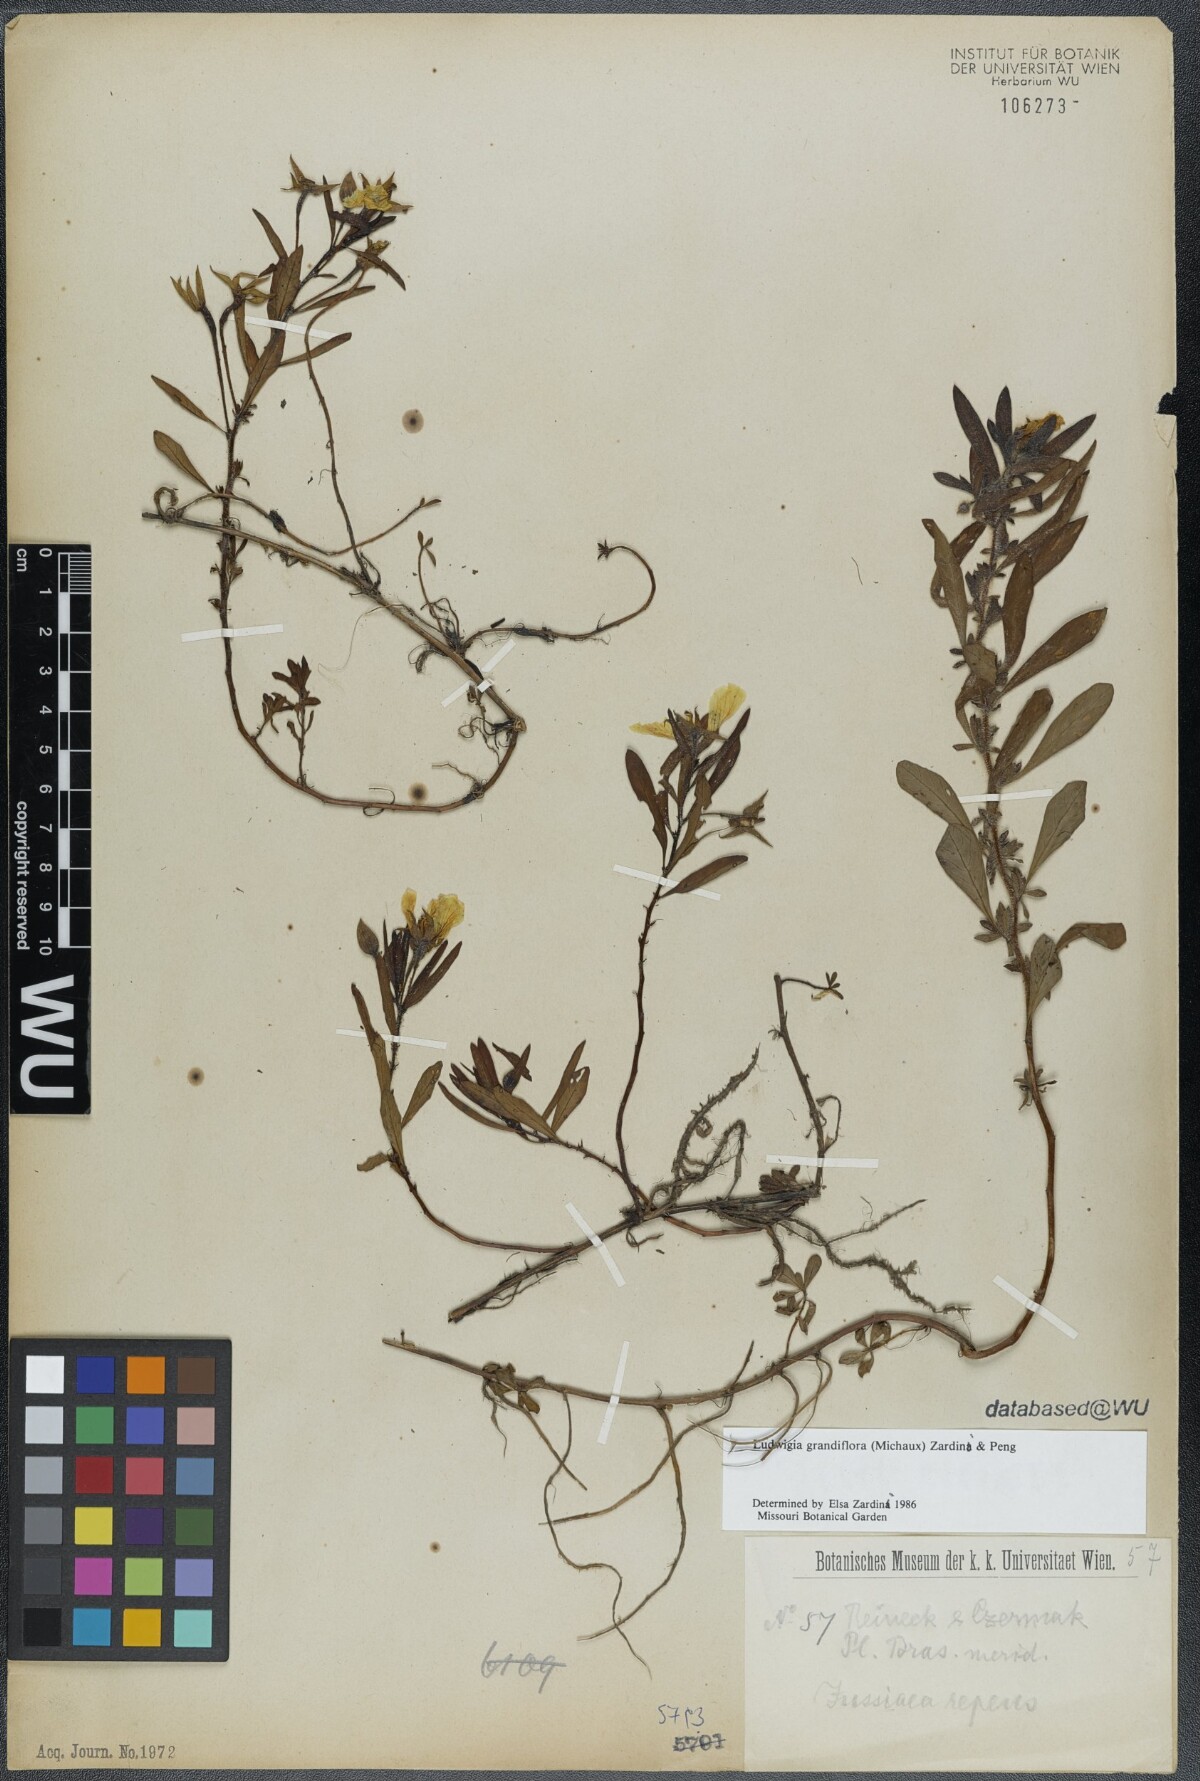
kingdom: Plantae
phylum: Tracheophyta
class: Magnoliopsida
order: Myrtales
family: Onagraceae
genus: Ludwigia
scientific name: Ludwigia grandiflora
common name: Water primrose
